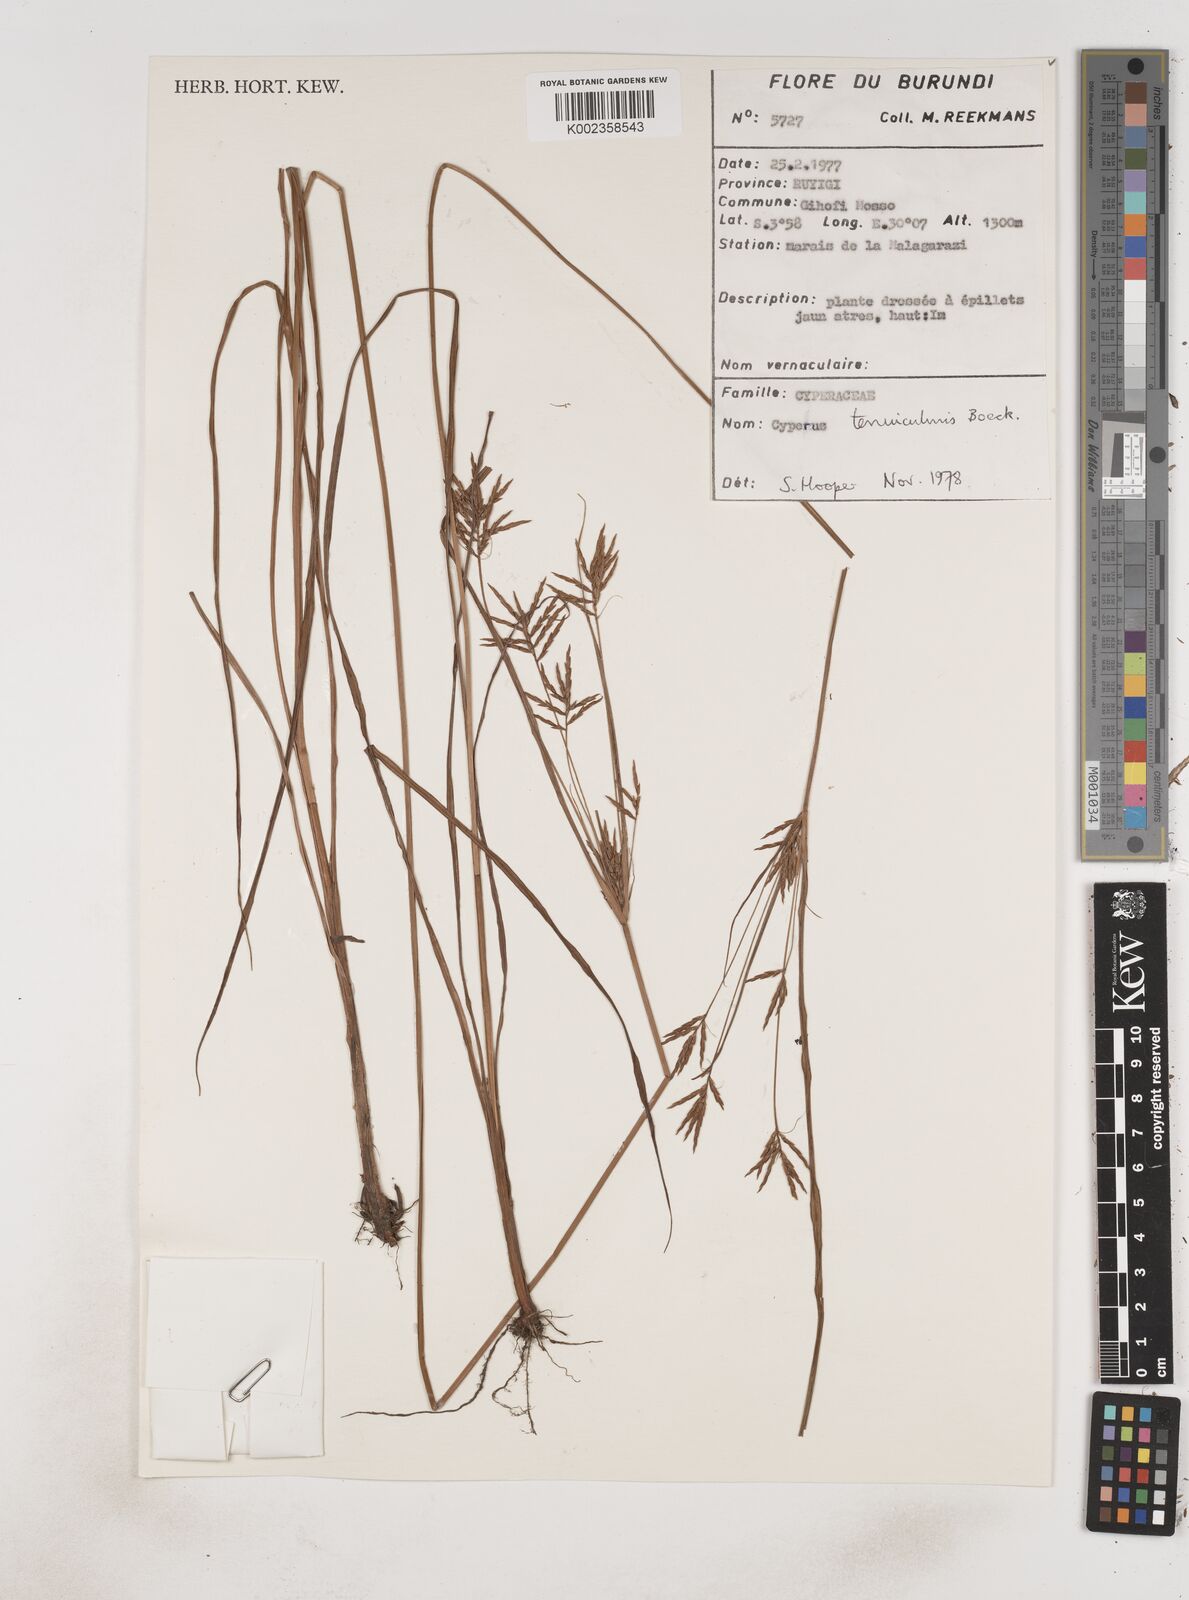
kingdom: Plantae
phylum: Tracheophyta
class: Liliopsida
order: Poales
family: Cyperaceae
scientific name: Cyperaceae
